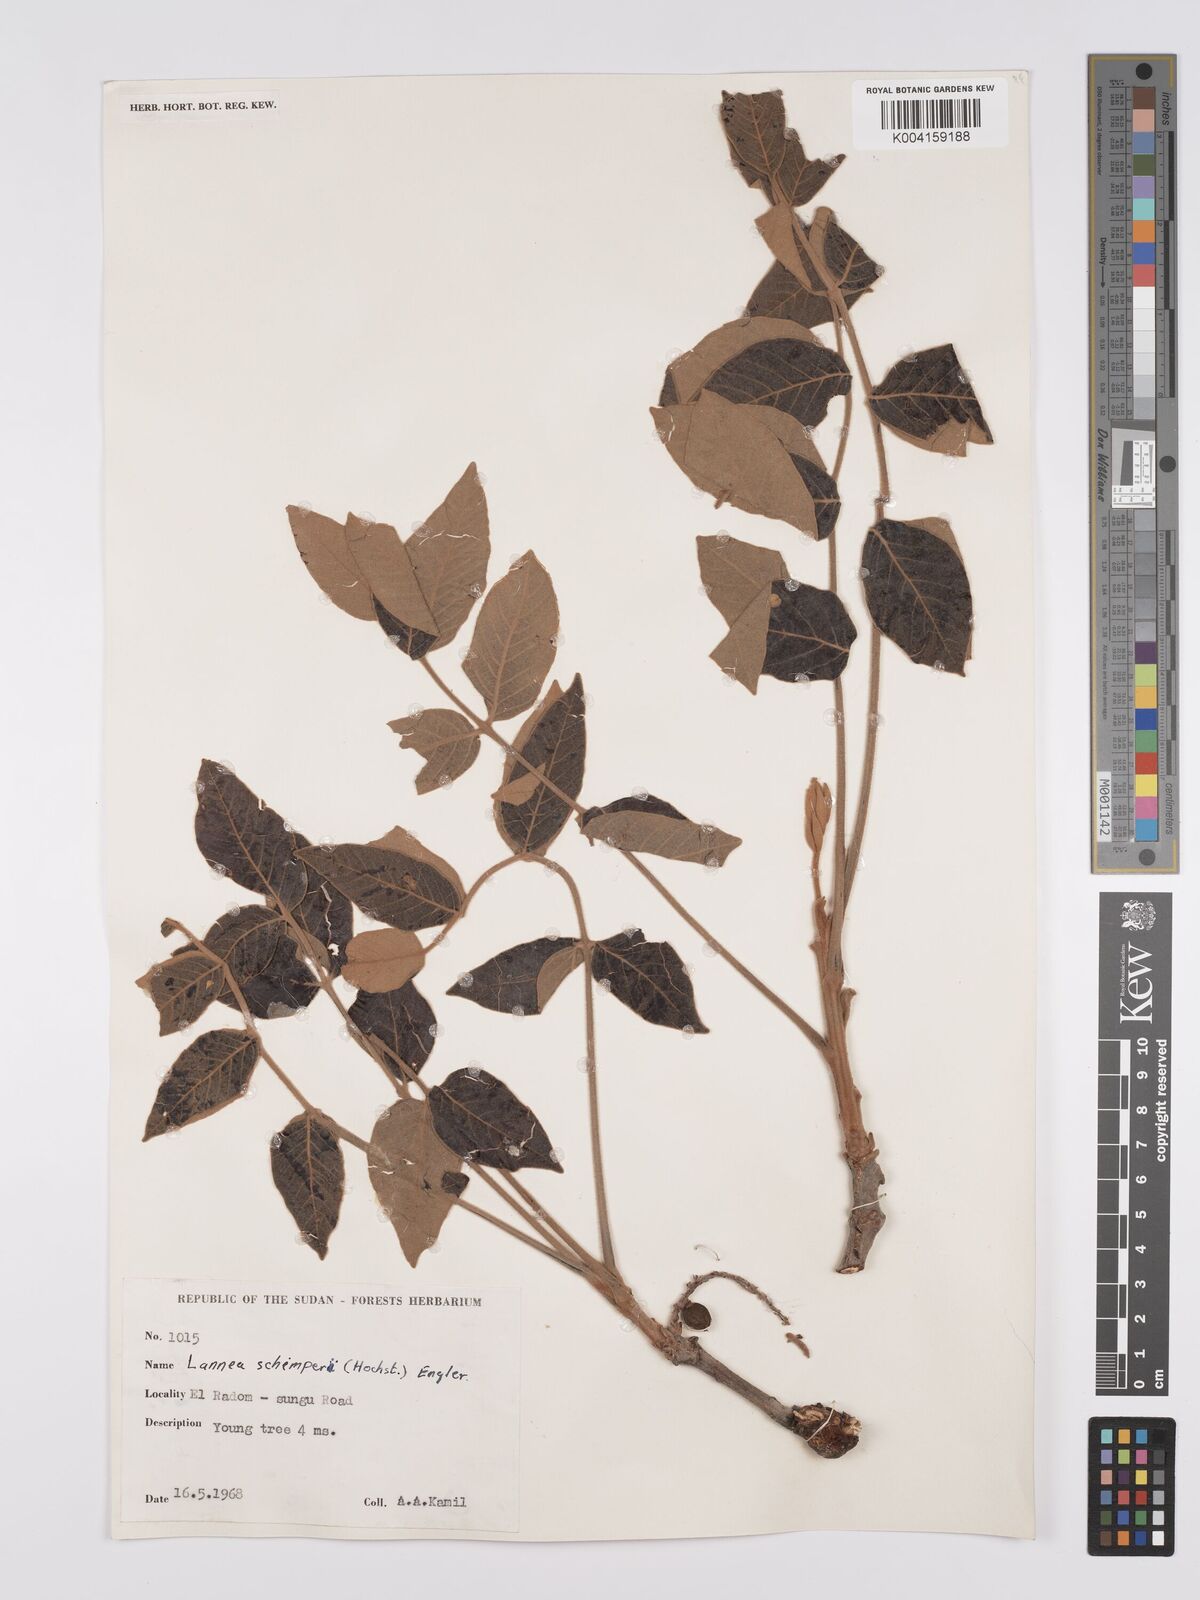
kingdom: Plantae
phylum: Tracheophyta
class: Magnoliopsida
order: Sapindales
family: Anacardiaceae
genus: Lannea
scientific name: Lannea schimperi
